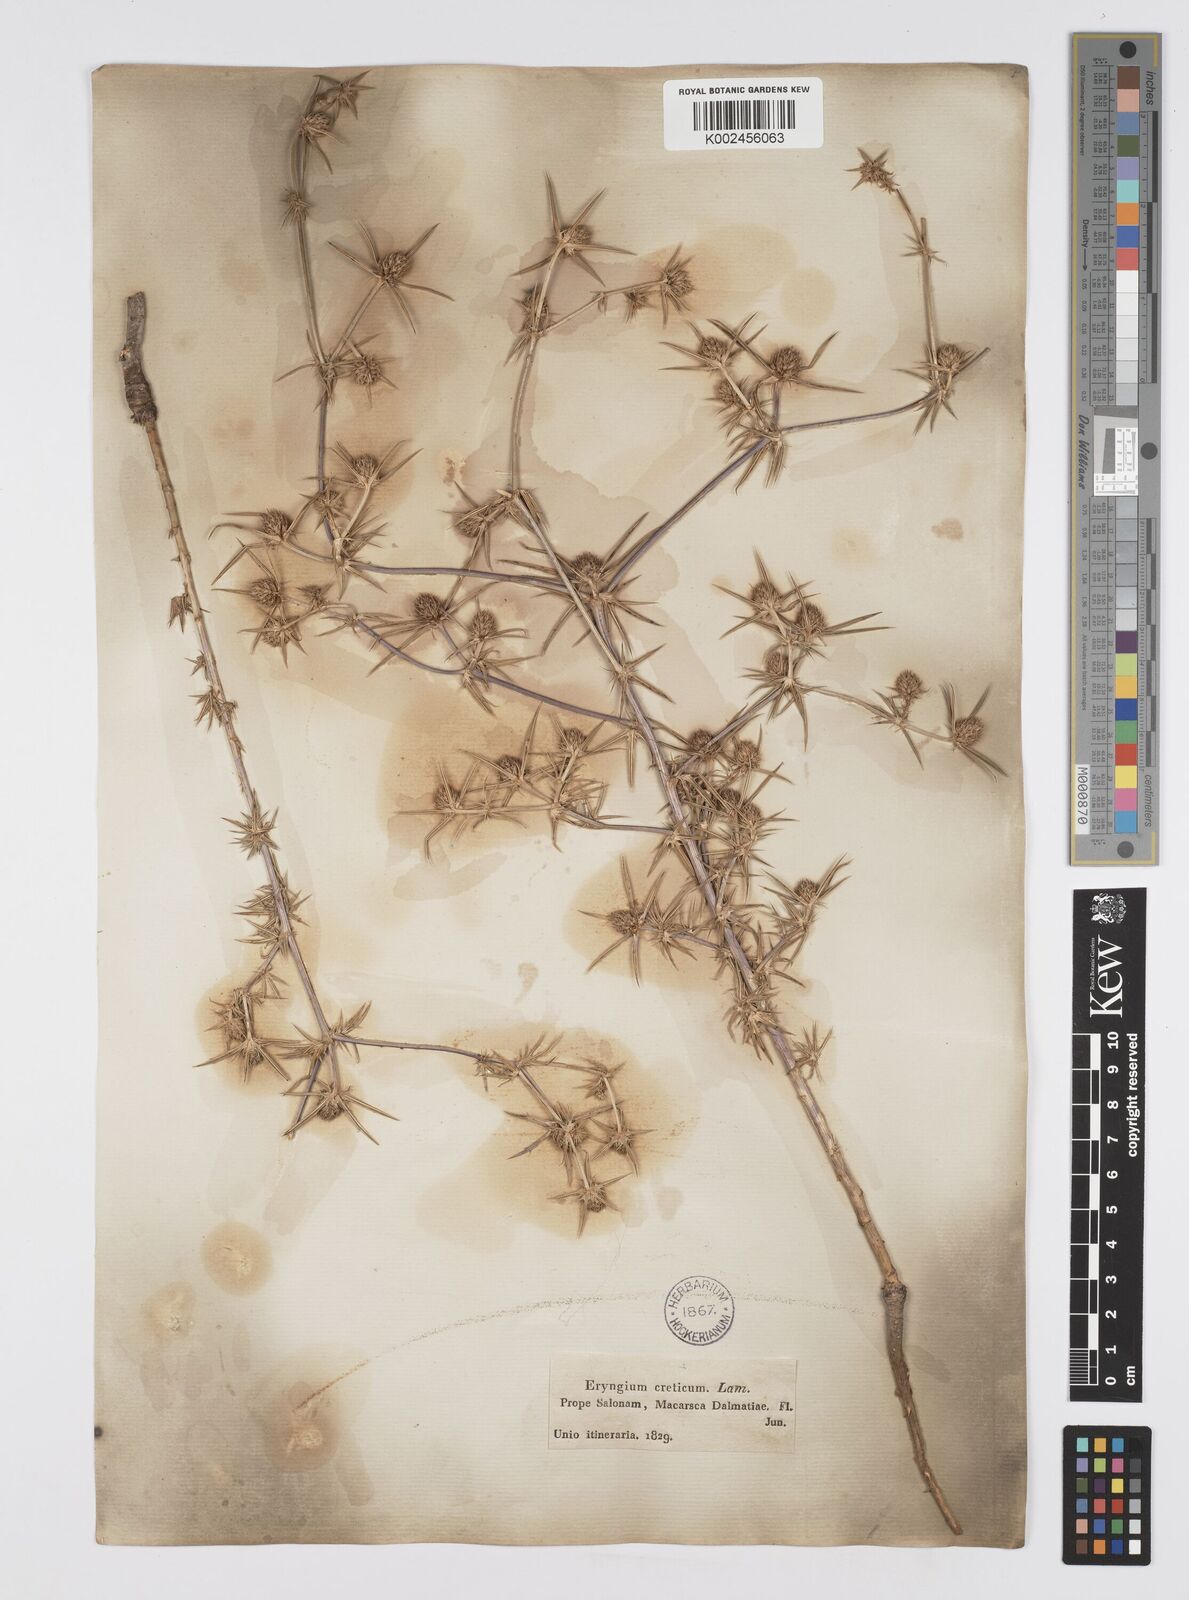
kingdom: Plantae
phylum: Tracheophyta
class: Magnoliopsida
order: Apiales
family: Apiaceae
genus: Eryngium
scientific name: Eryngium creticum
